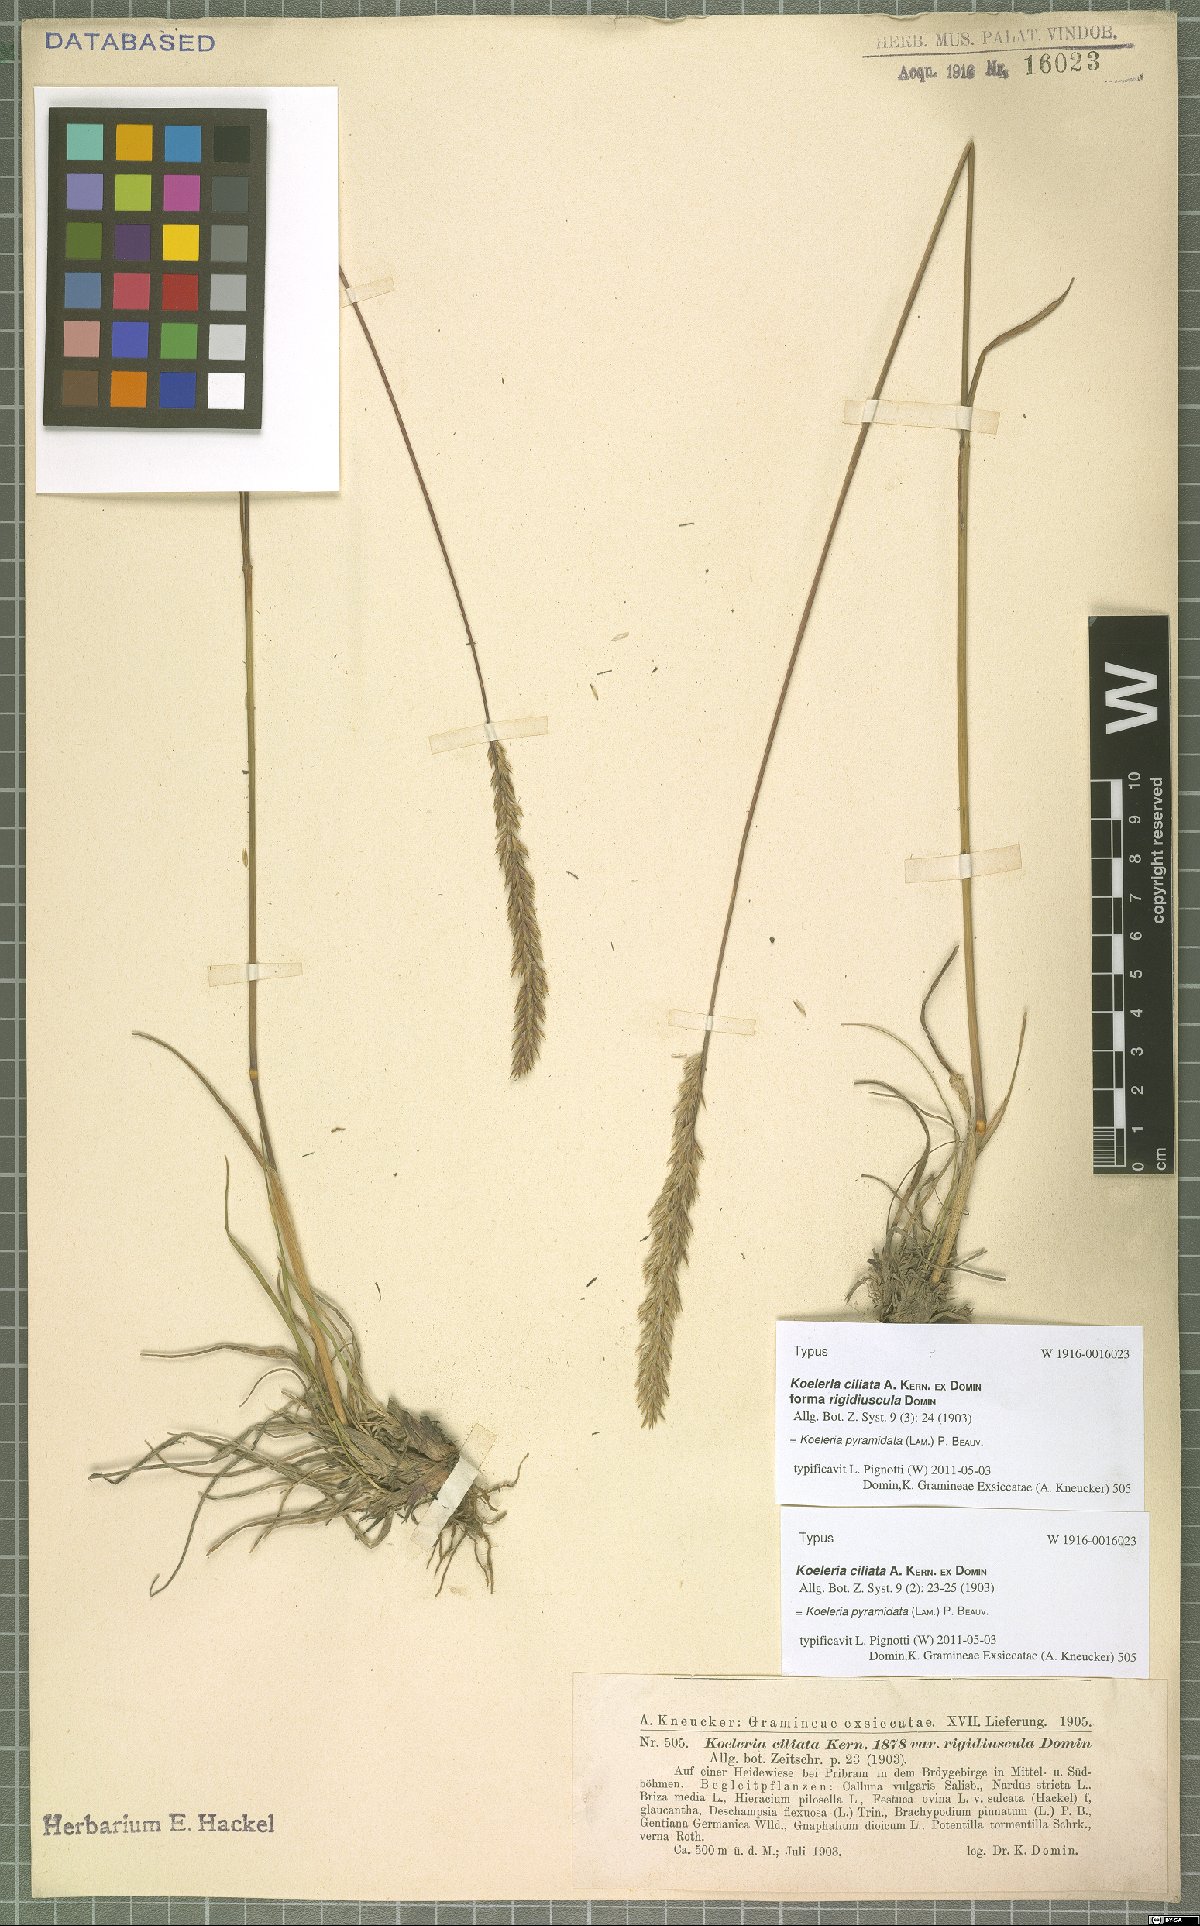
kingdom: Plantae
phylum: Tracheophyta
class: Liliopsida
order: Poales
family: Poaceae
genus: Koeleria
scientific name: Koeleria pyramidata
